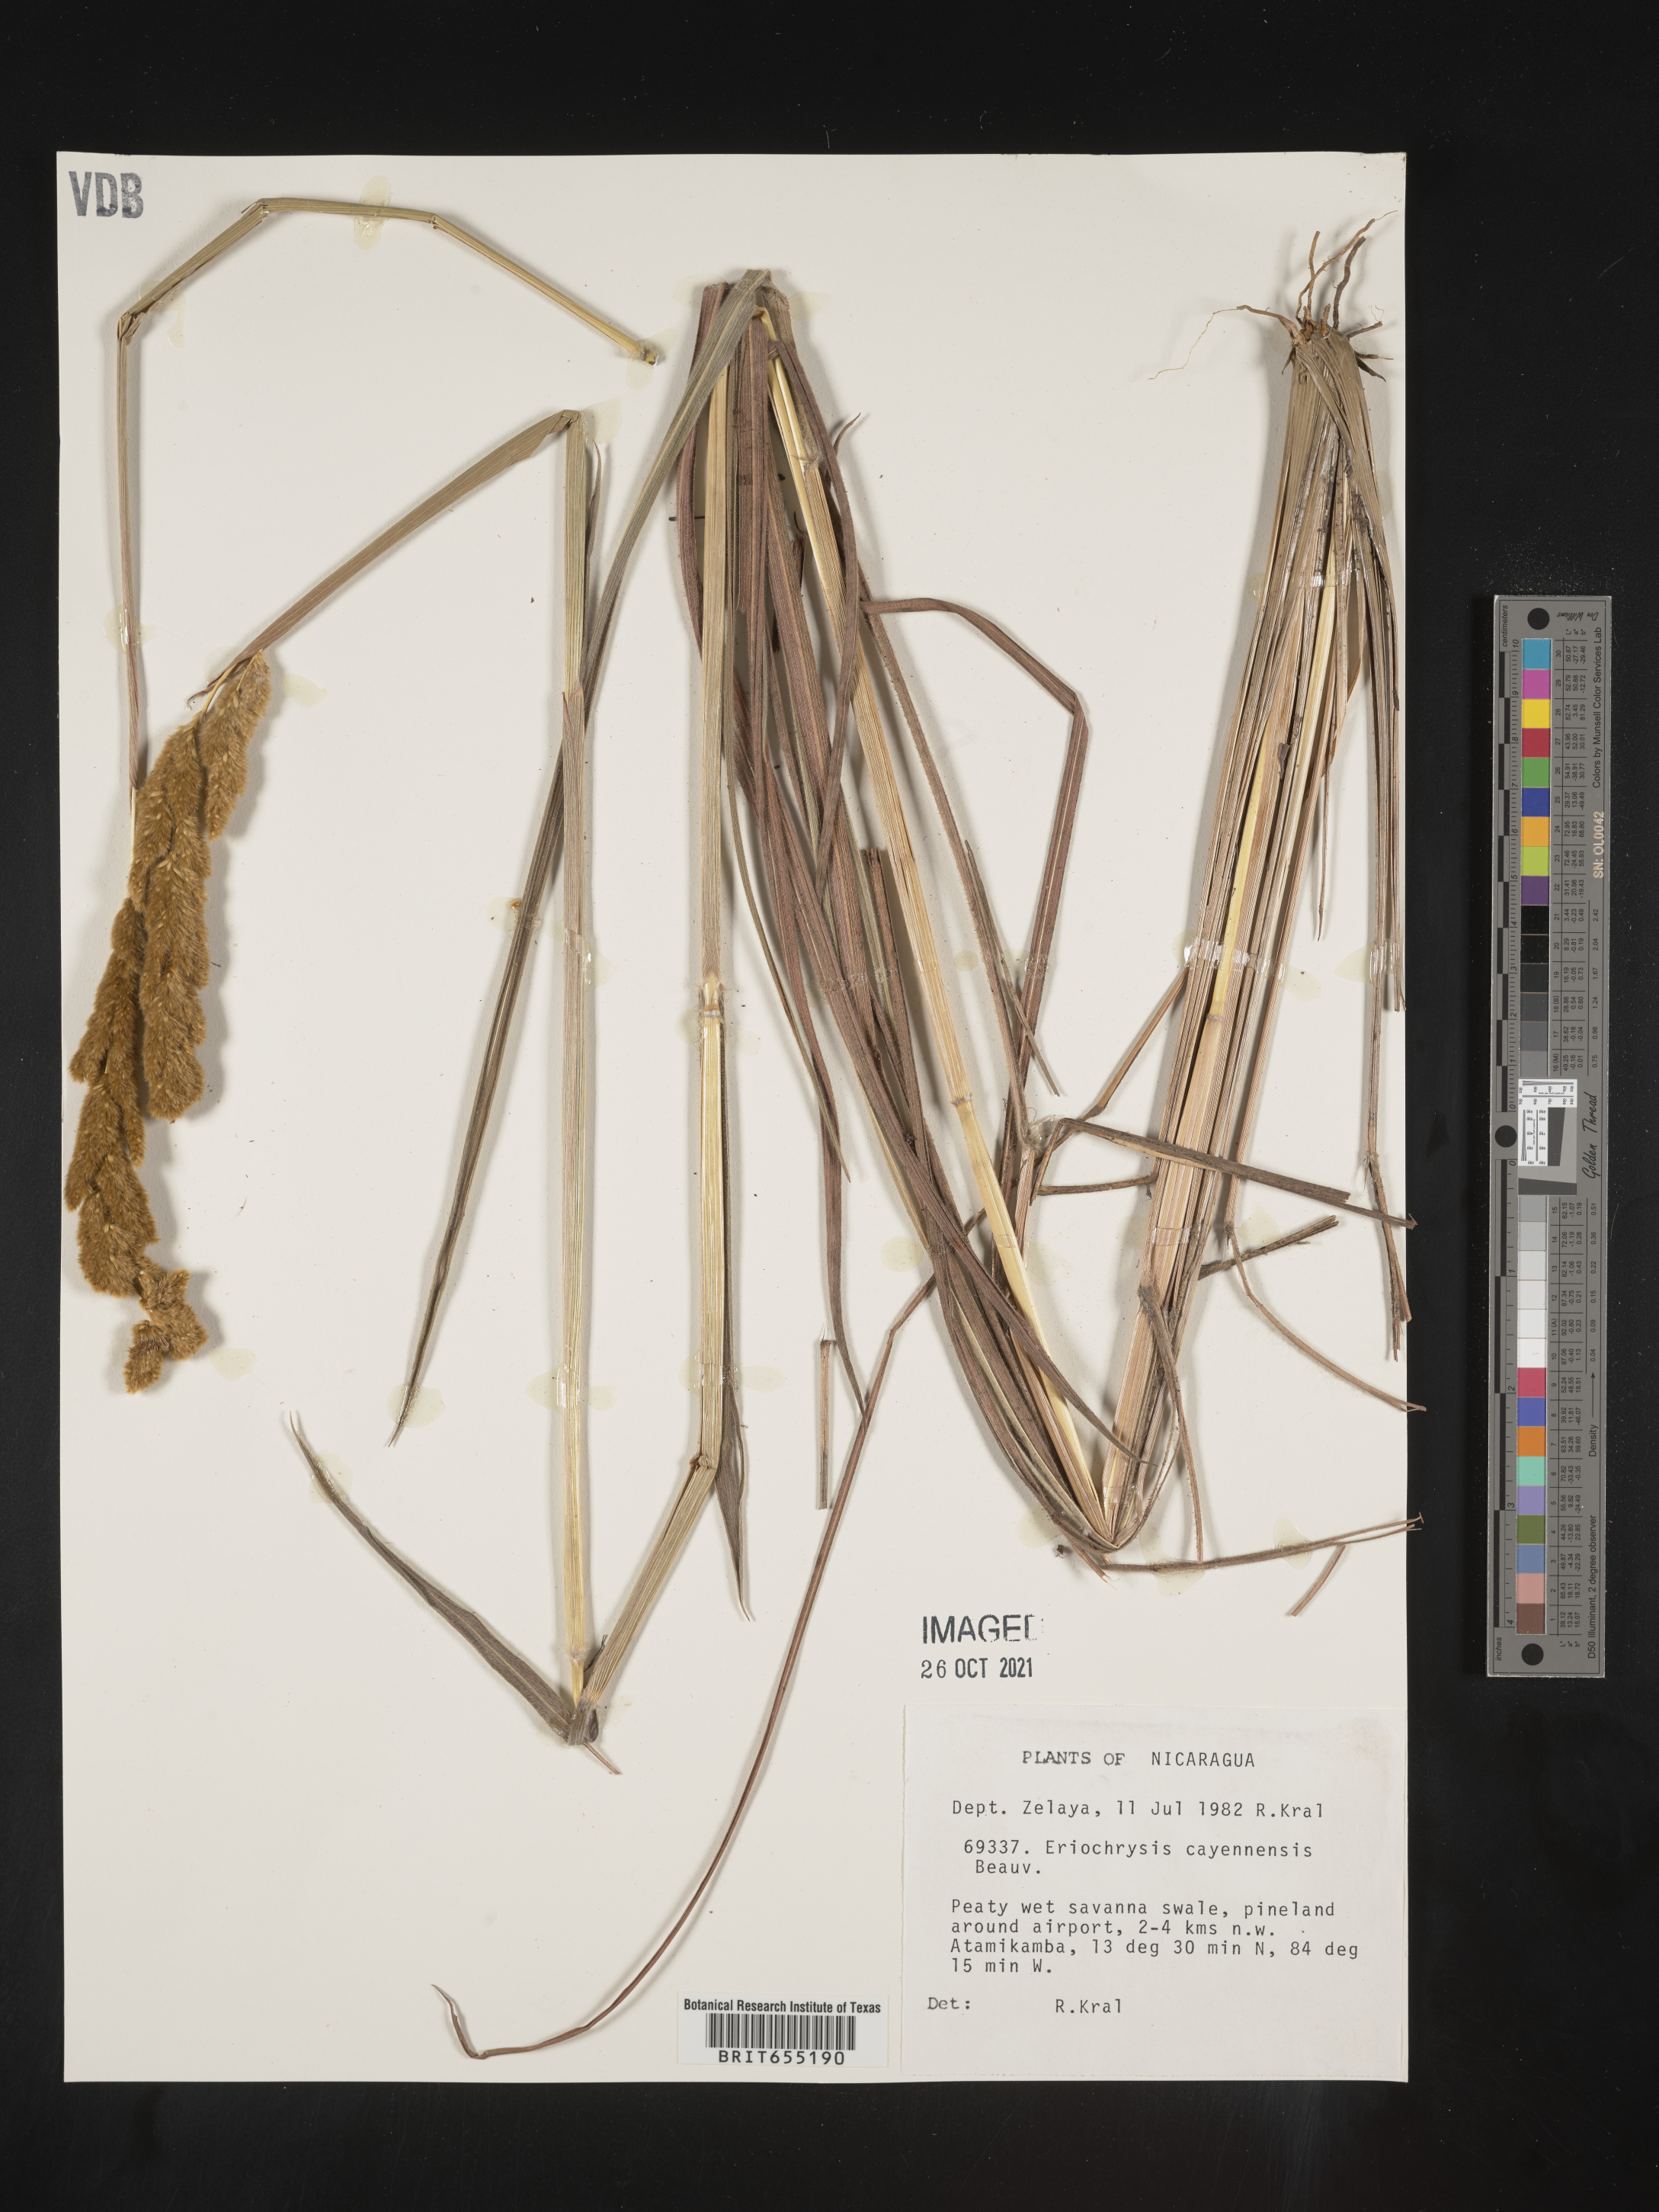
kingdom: Plantae
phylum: Tracheophyta
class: Liliopsida
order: Poales
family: Poaceae
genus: Eriochrysis
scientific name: Eriochrysis
